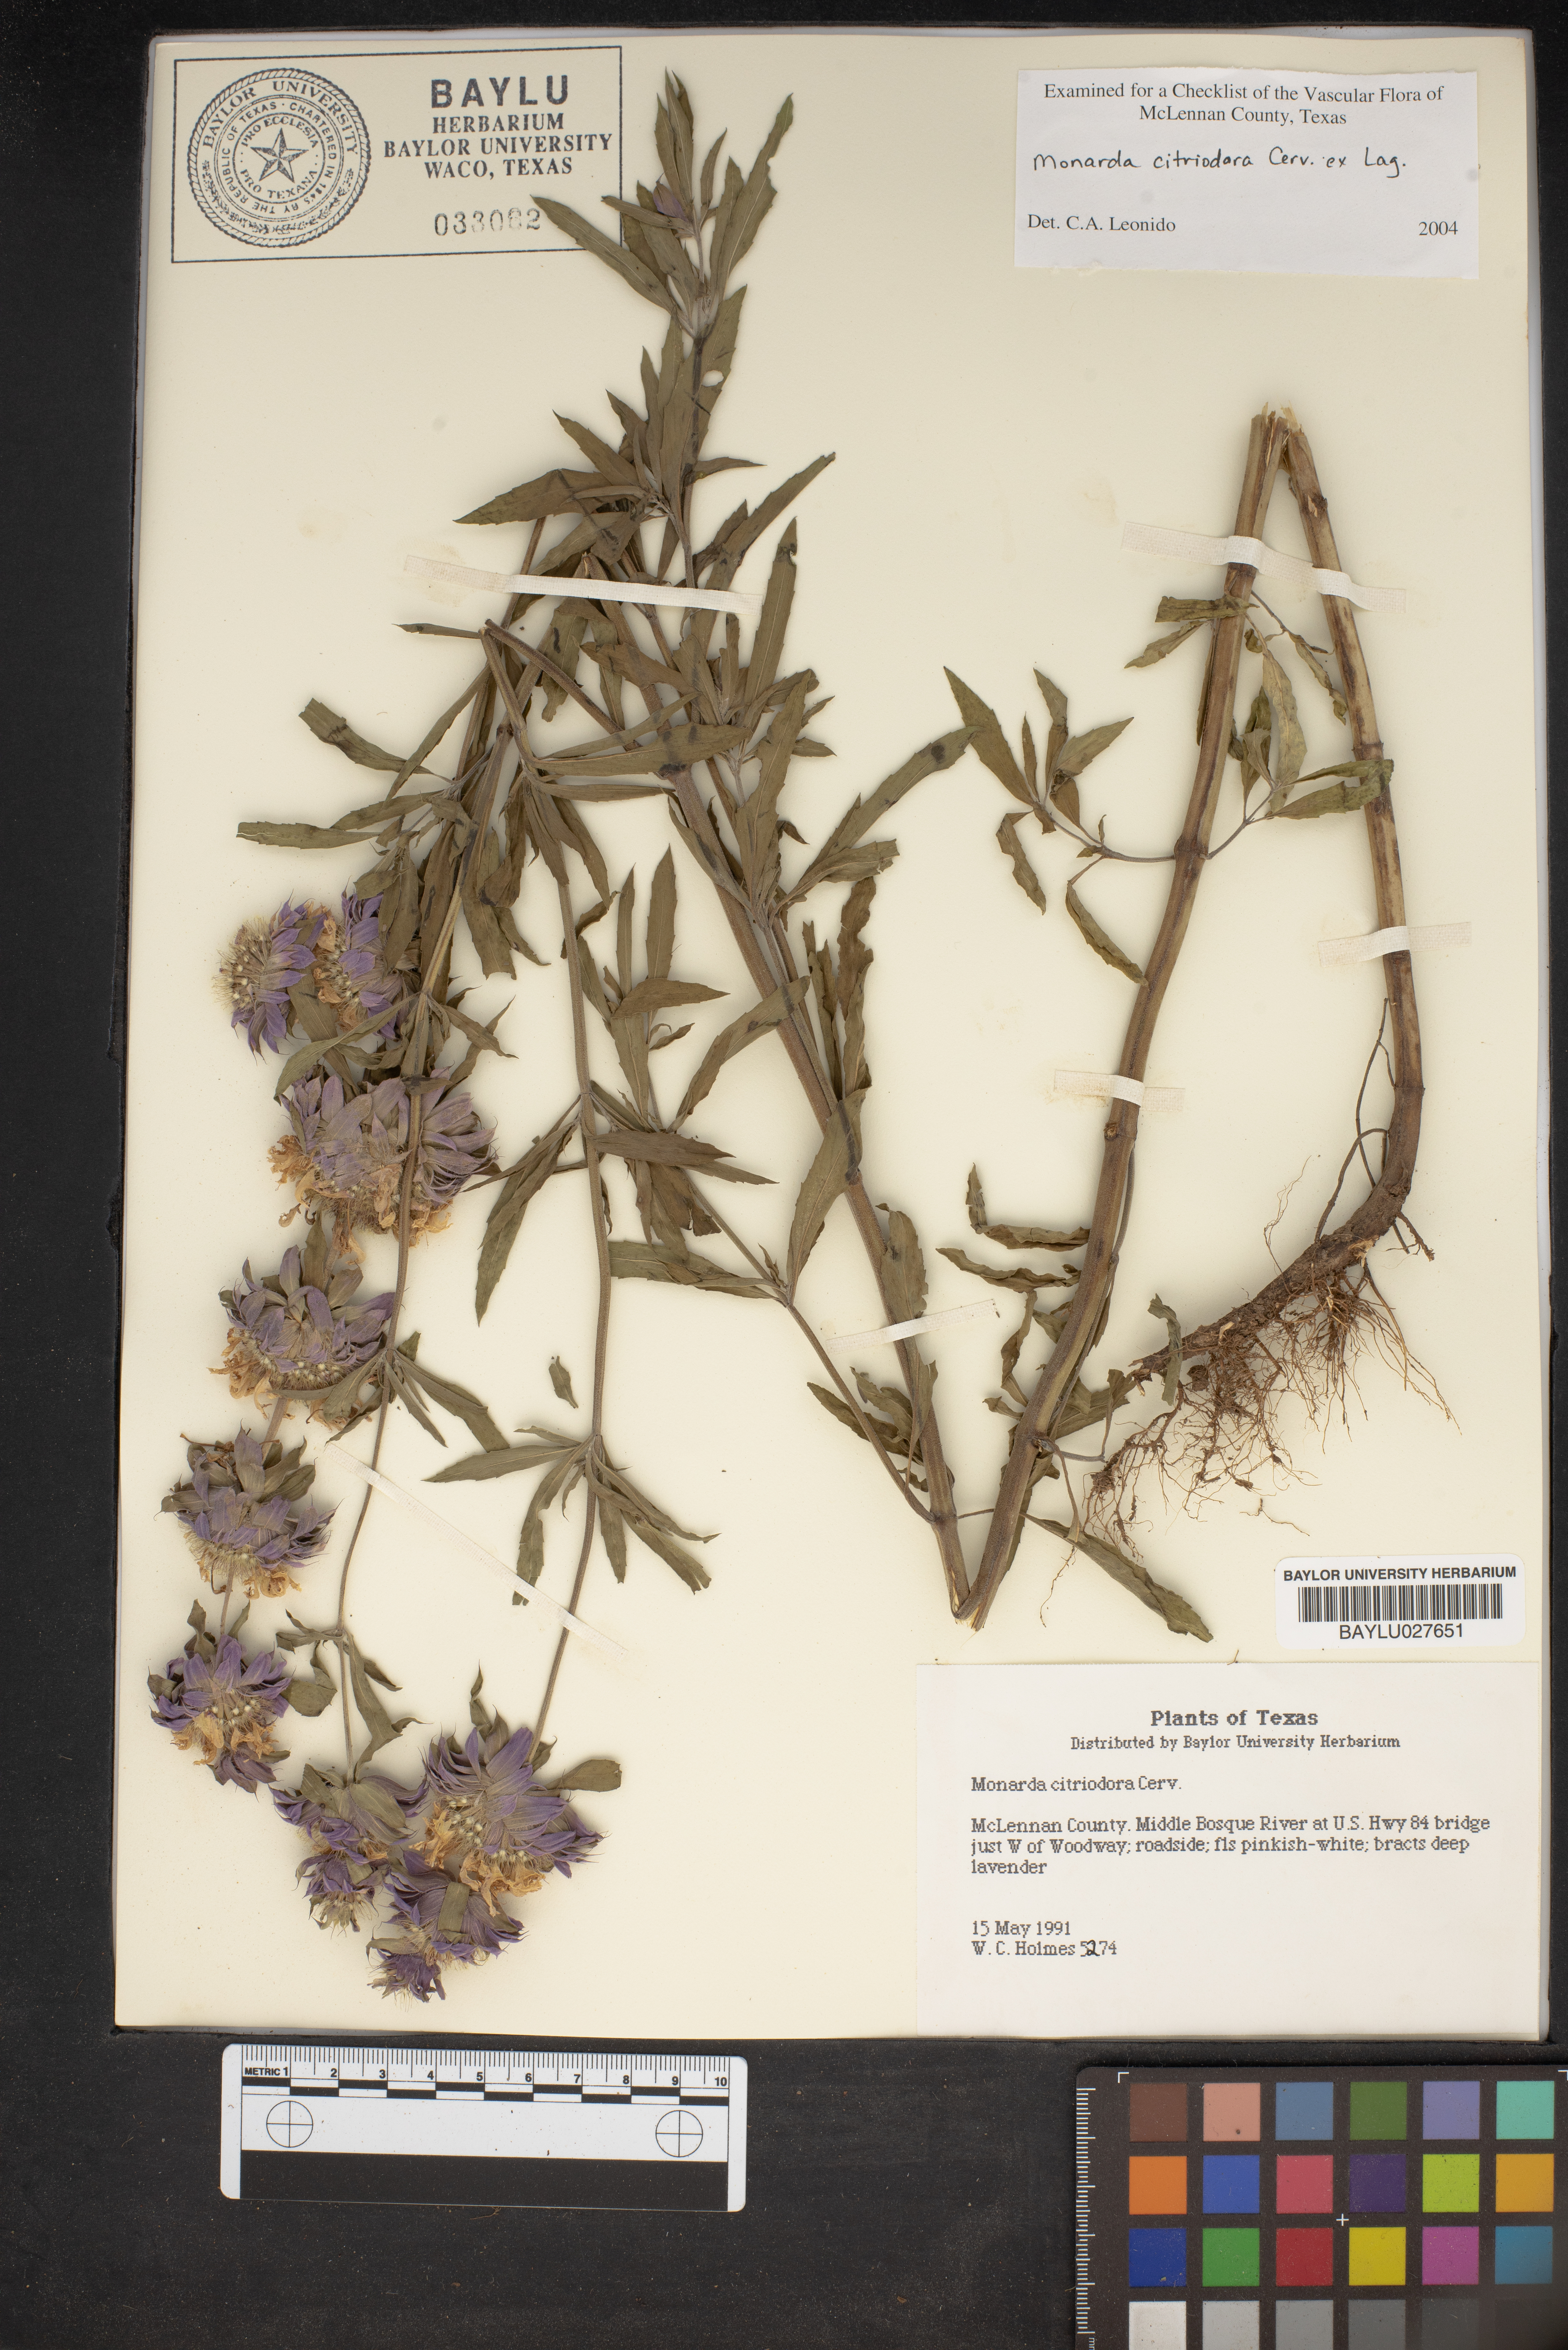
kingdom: Plantae
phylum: Tracheophyta
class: Magnoliopsida
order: Lamiales
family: Lamiaceae
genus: Monarda
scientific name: Monarda citriodora
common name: Lemon beebalm
